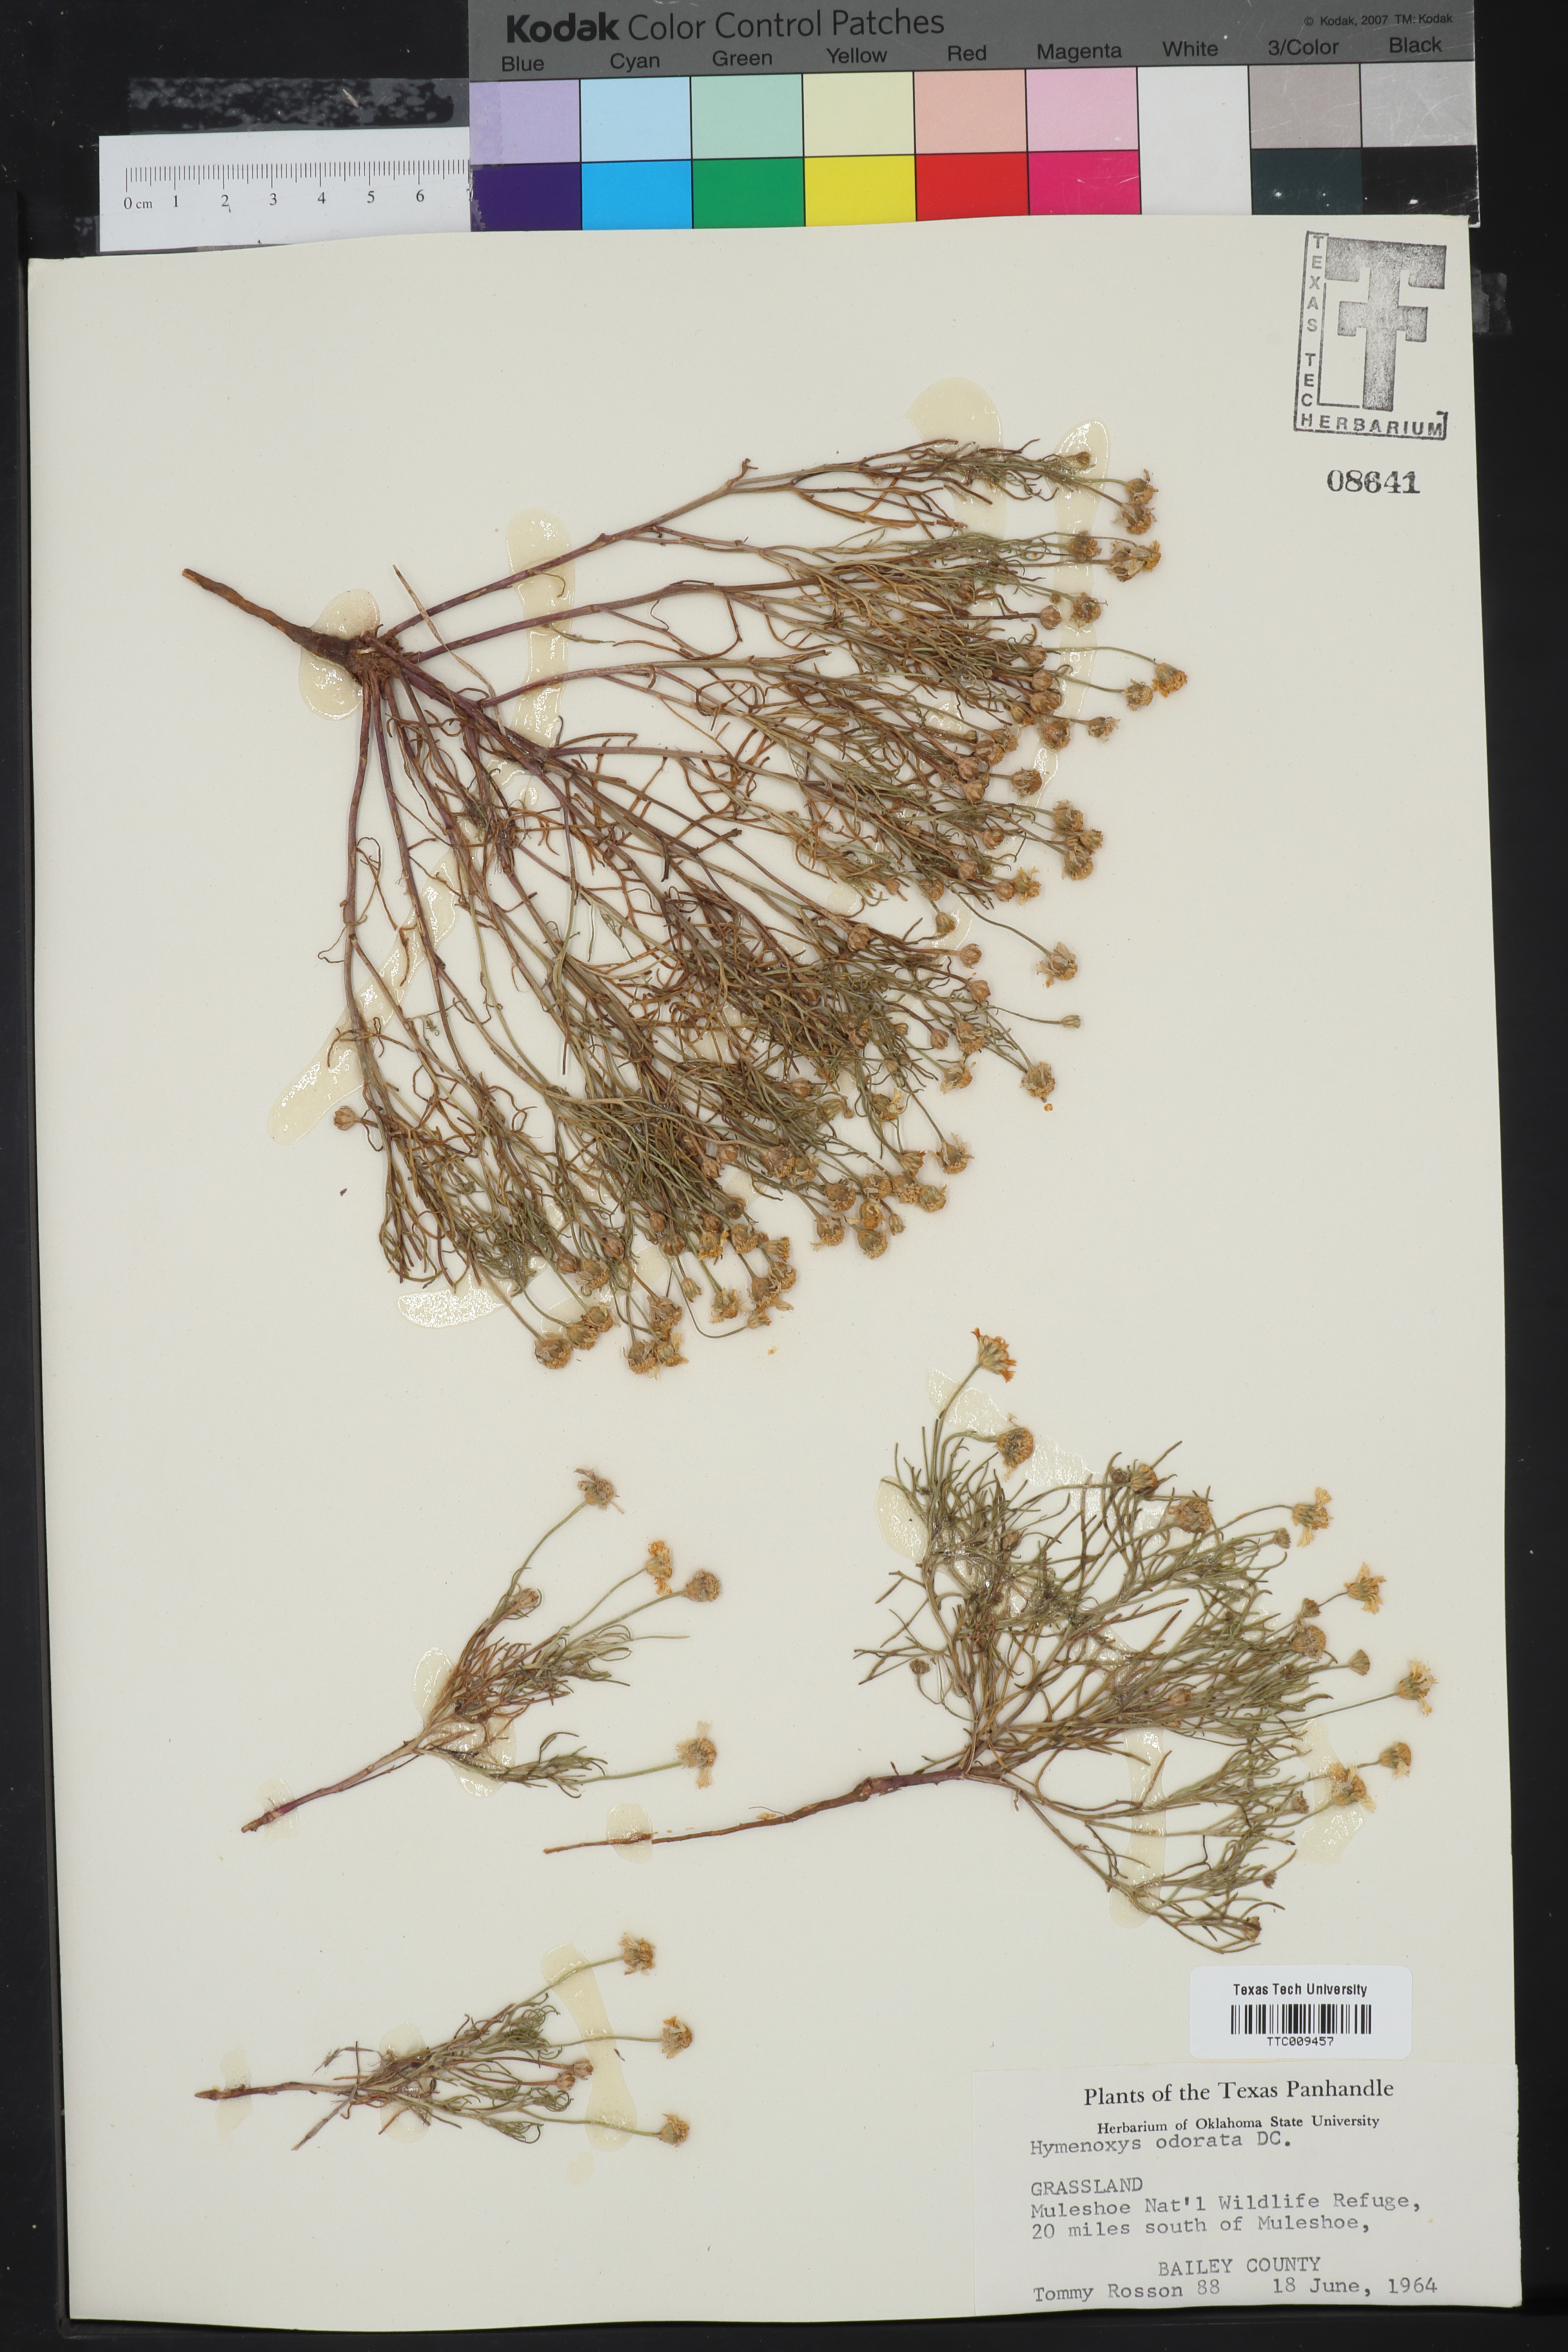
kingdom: Plantae
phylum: Tracheophyta
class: Magnoliopsida
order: Asterales
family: Asteraceae
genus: Hymenoxys
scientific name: Hymenoxys odorata
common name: Bitter rubberweed
